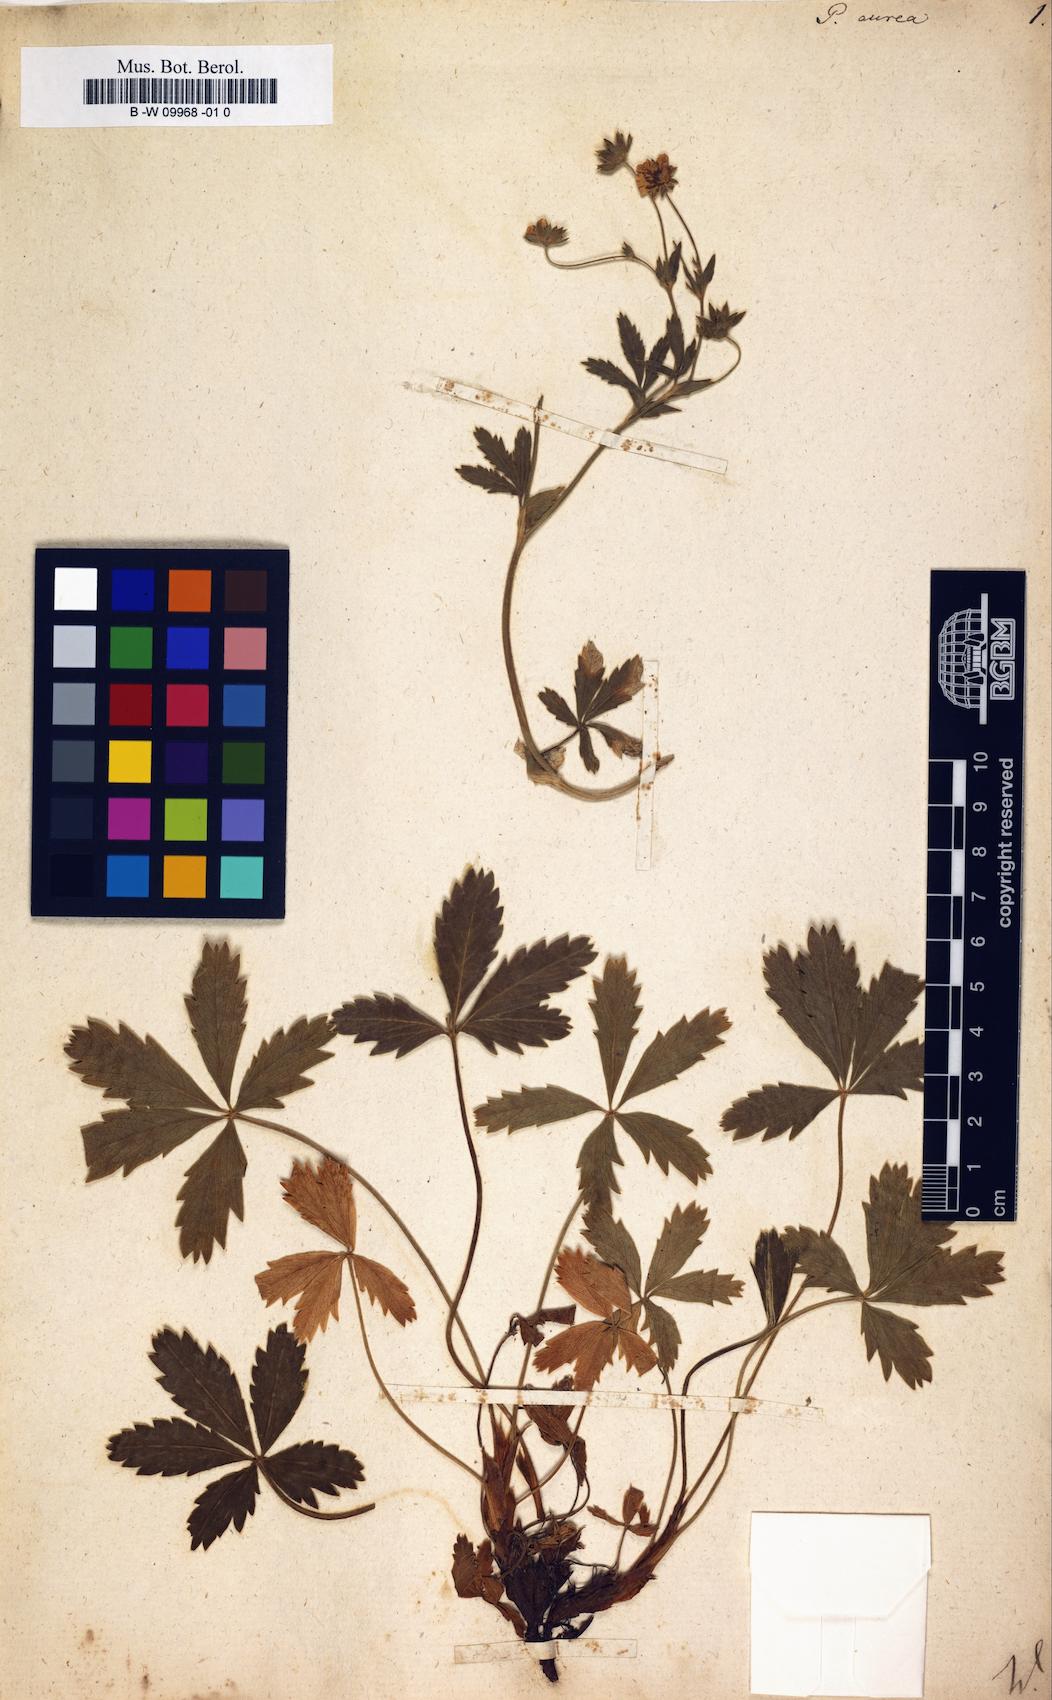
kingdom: Plantae
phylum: Tracheophyta
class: Magnoliopsida
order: Rosales
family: Rosaceae
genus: Potentilla
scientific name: Potentilla aurea
